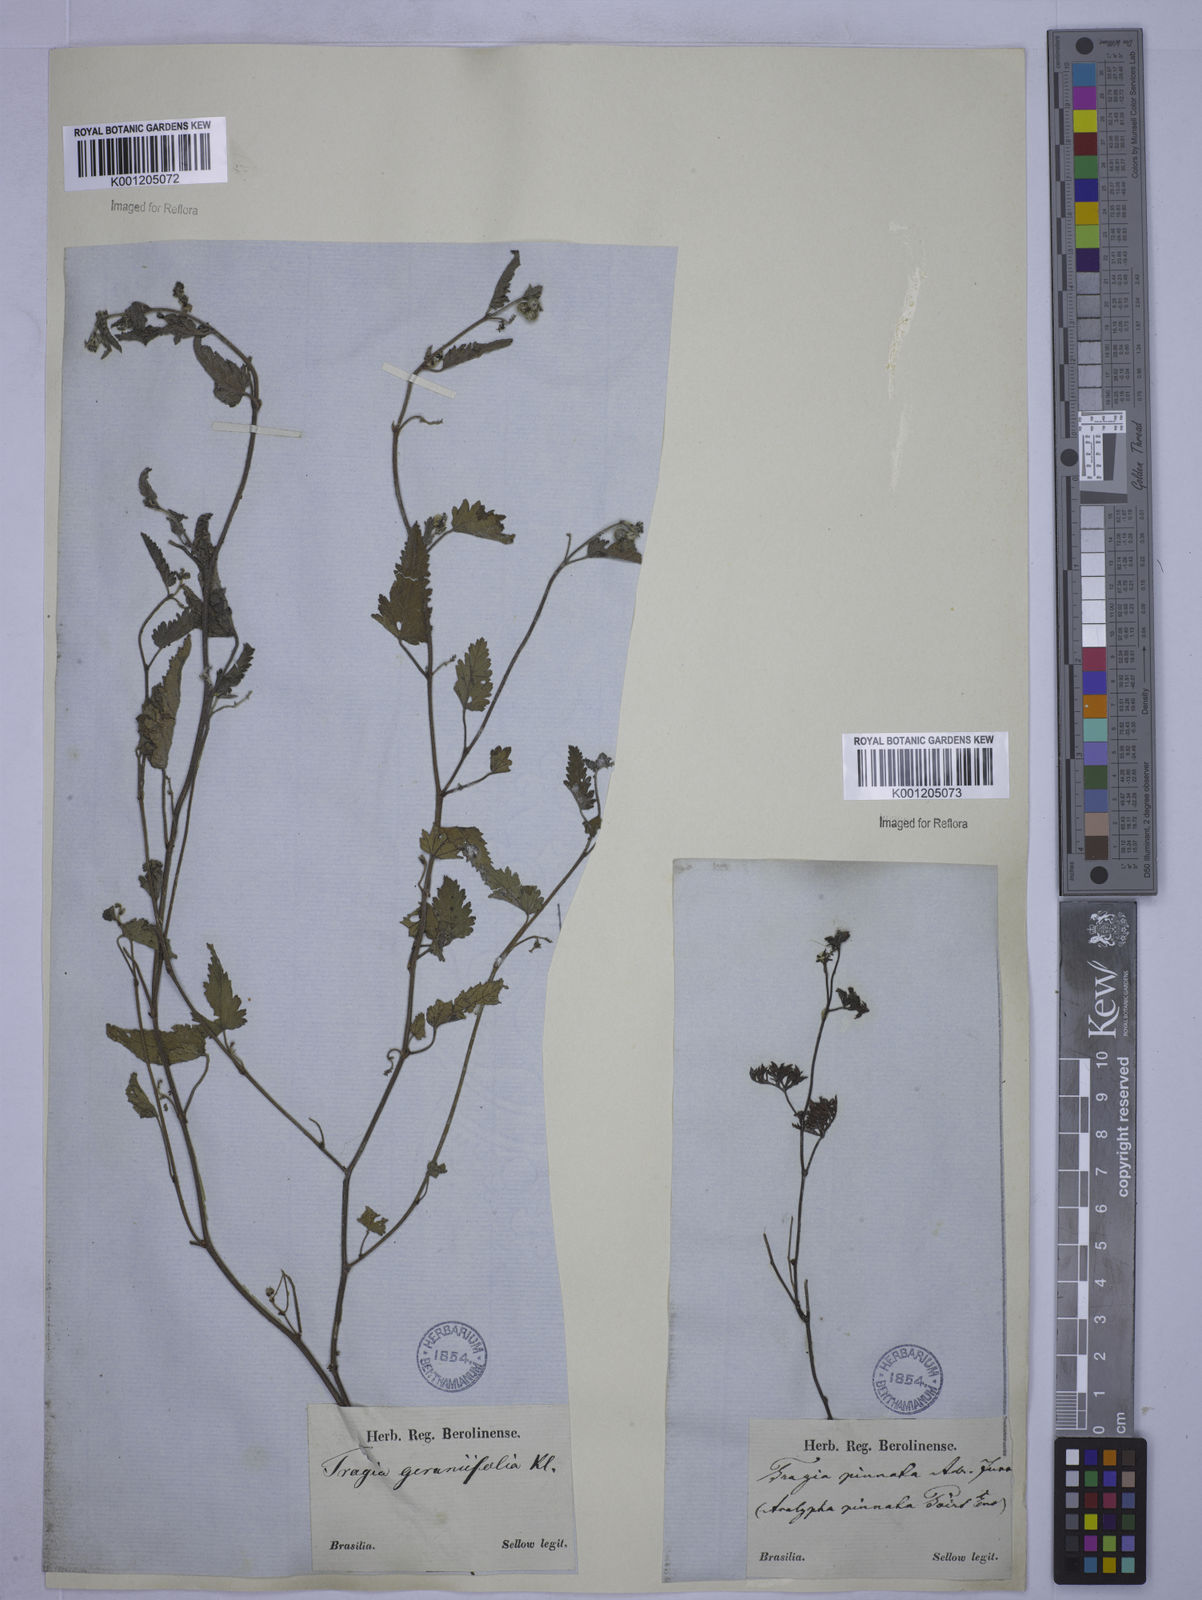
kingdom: Plantae
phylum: Tracheophyta
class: Magnoliopsida
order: Malpighiales
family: Euphorbiaceae
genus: Tragia
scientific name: Tragia
